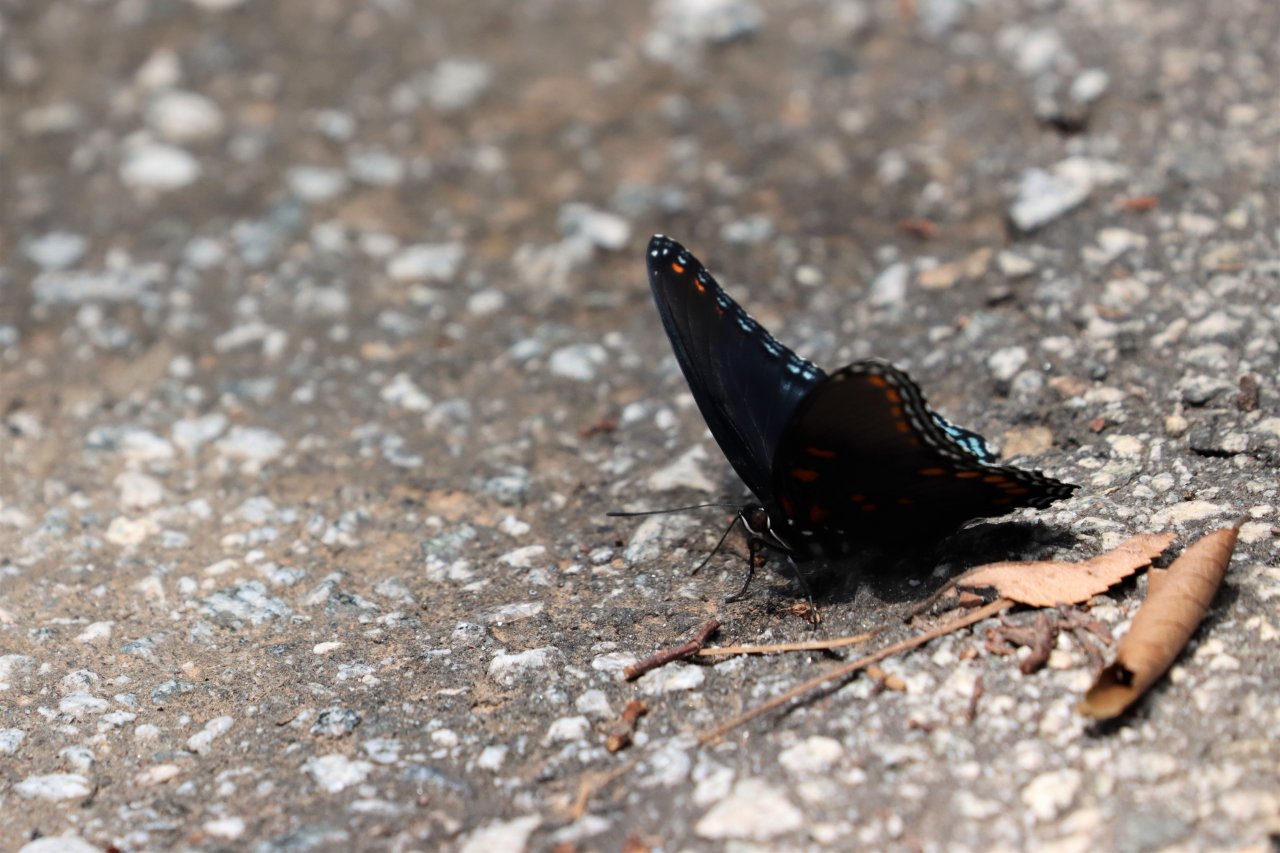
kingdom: Animalia
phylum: Arthropoda
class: Insecta
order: Lepidoptera
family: Nymphalidae
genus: Limenitis
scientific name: Limenitis arthemis
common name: Red-spotted Admiral
